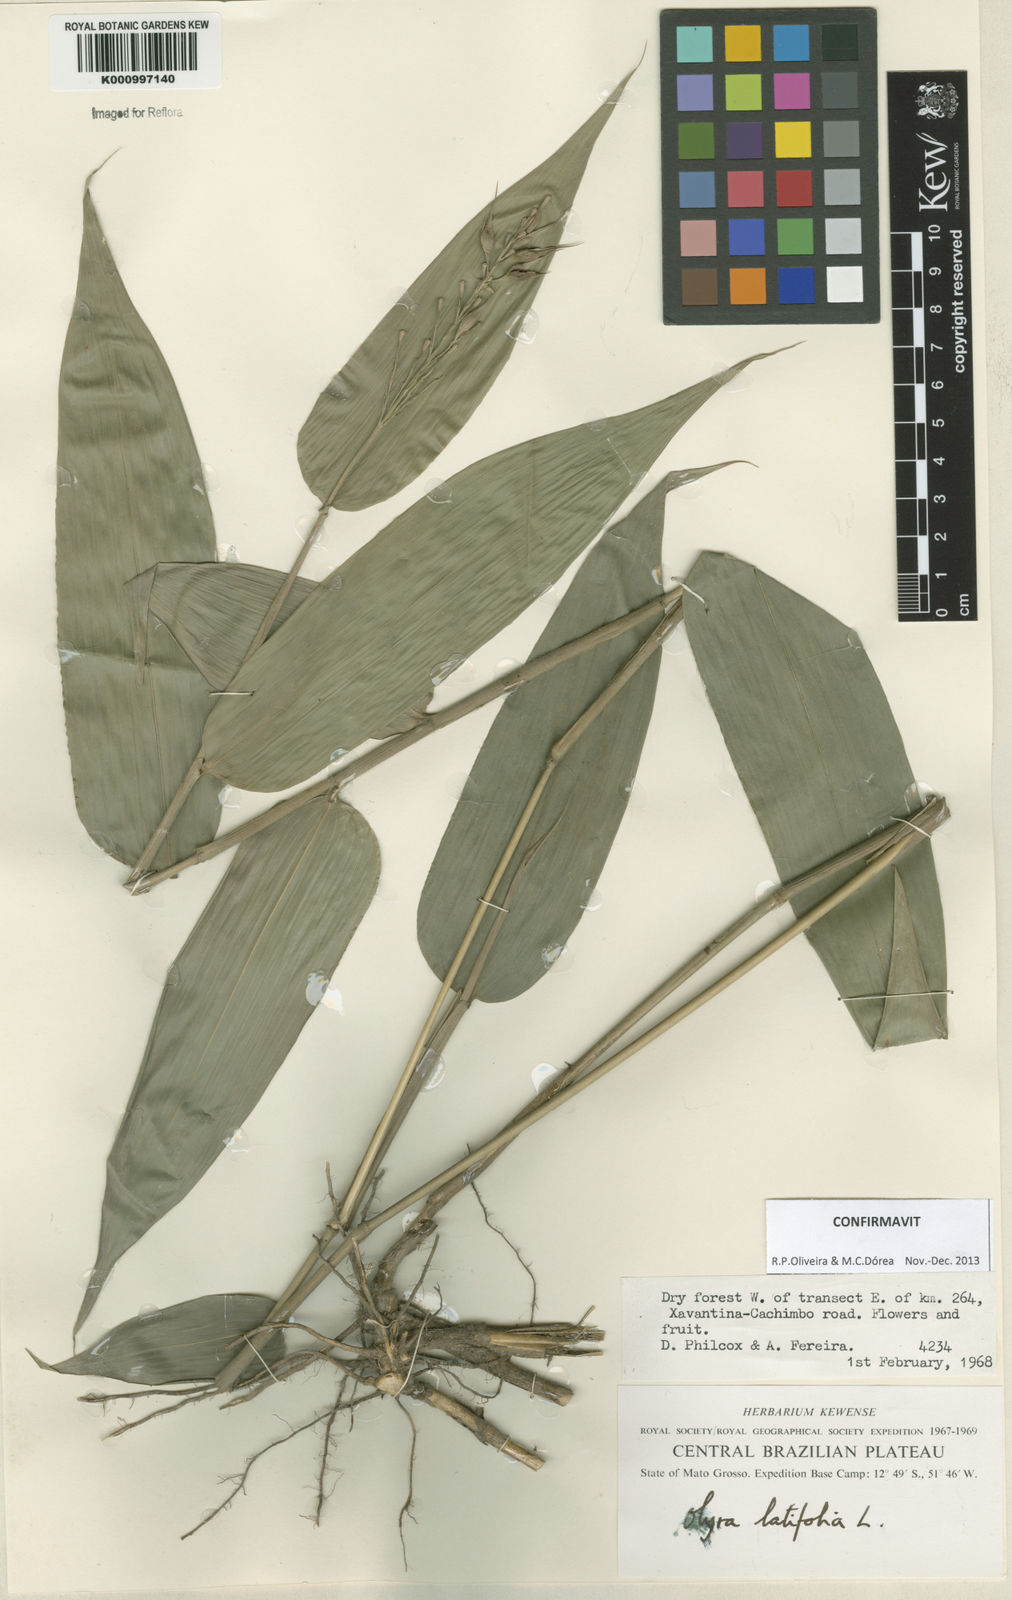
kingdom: Plantae
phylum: Tracheophyta
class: Liliopsida
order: Poales
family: Poaceae
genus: Olyra
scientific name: Olyra latifolia
